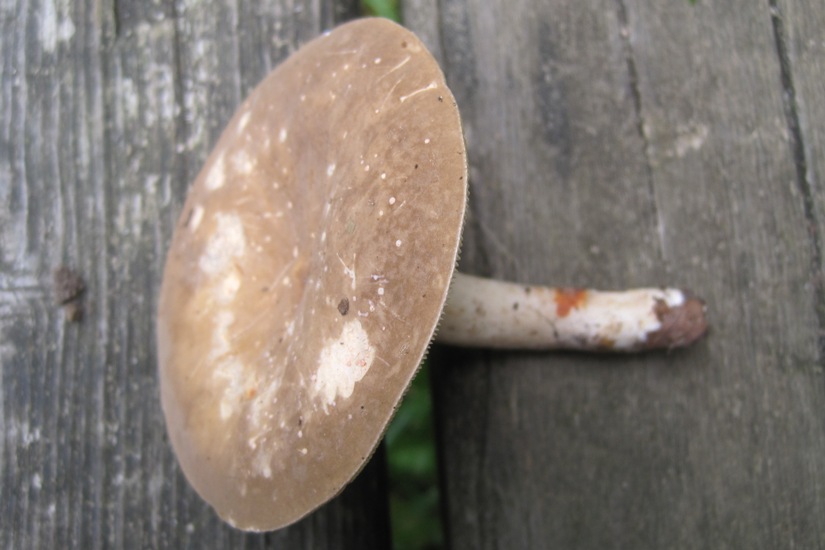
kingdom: Fungi
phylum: Basidiomycota
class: Agaricomycetes
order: Russulales
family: Russulaceae
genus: Lactarius
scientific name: Lactarius pterosporus
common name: vingesporet mælkehat
